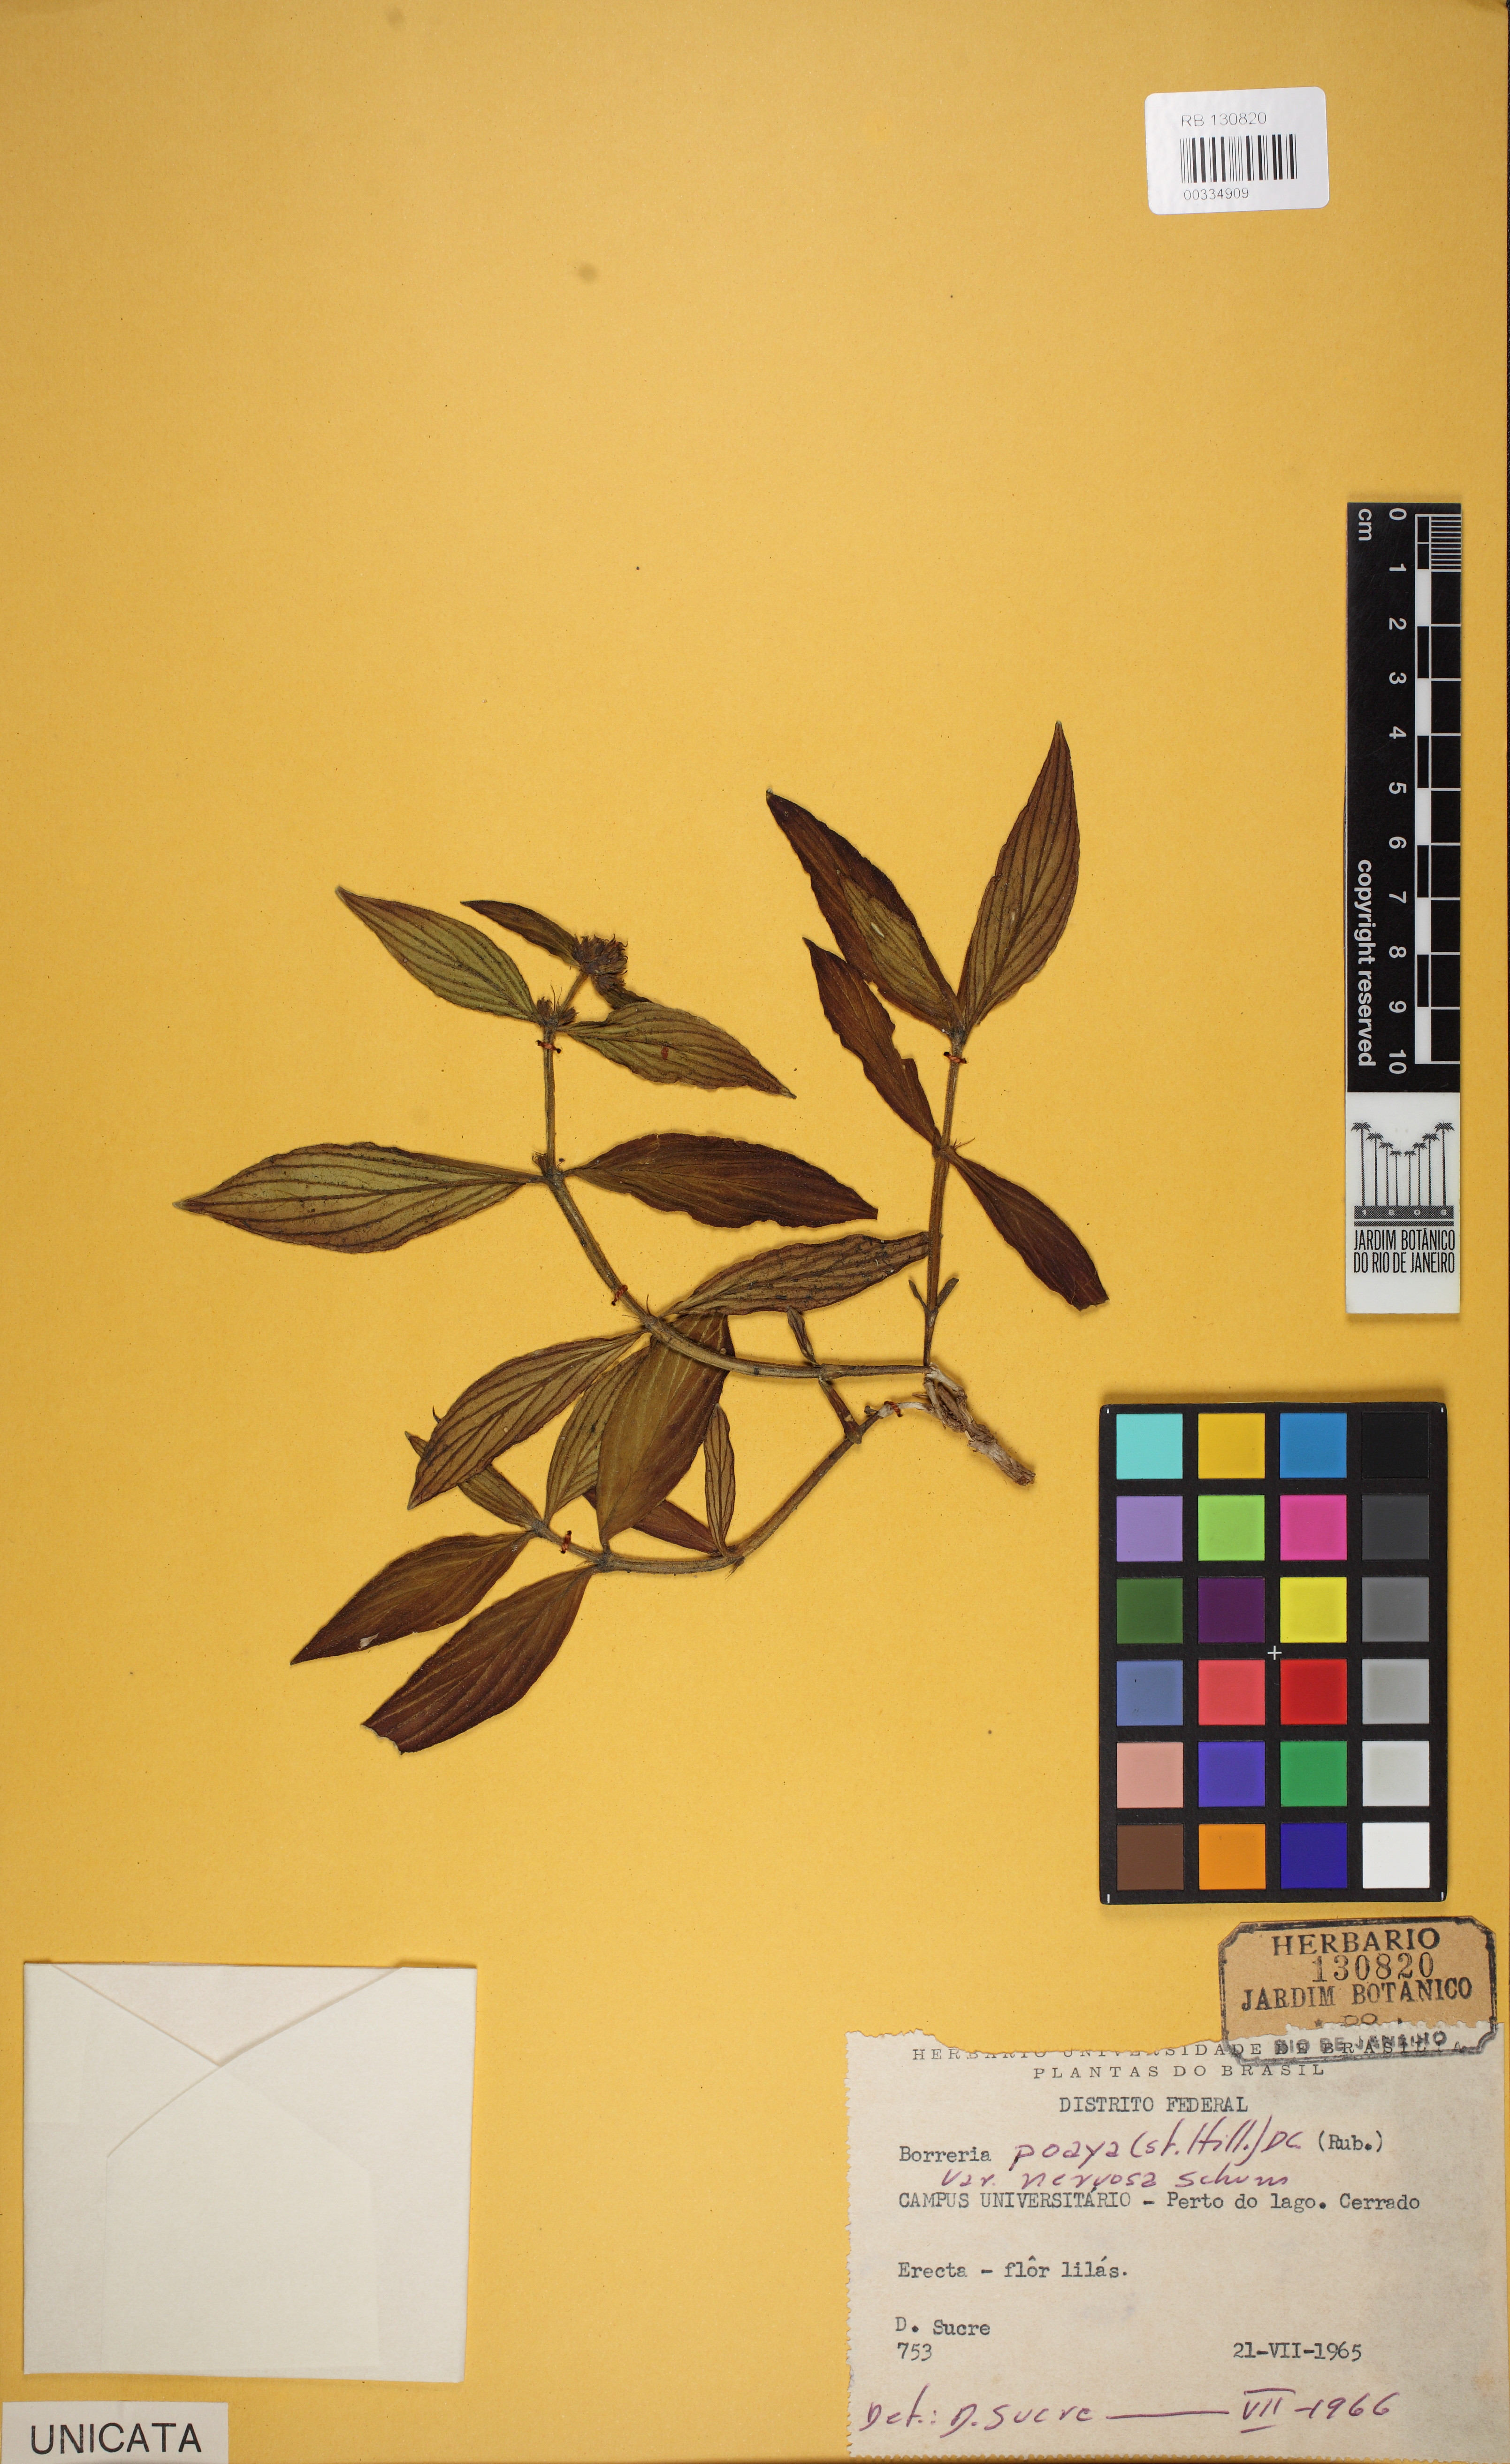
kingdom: Plantae
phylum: Tracheophyta
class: Magnoliopsida
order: Gentianales
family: Rubiaceae
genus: Spermacoce
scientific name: Spermacoce poaya
